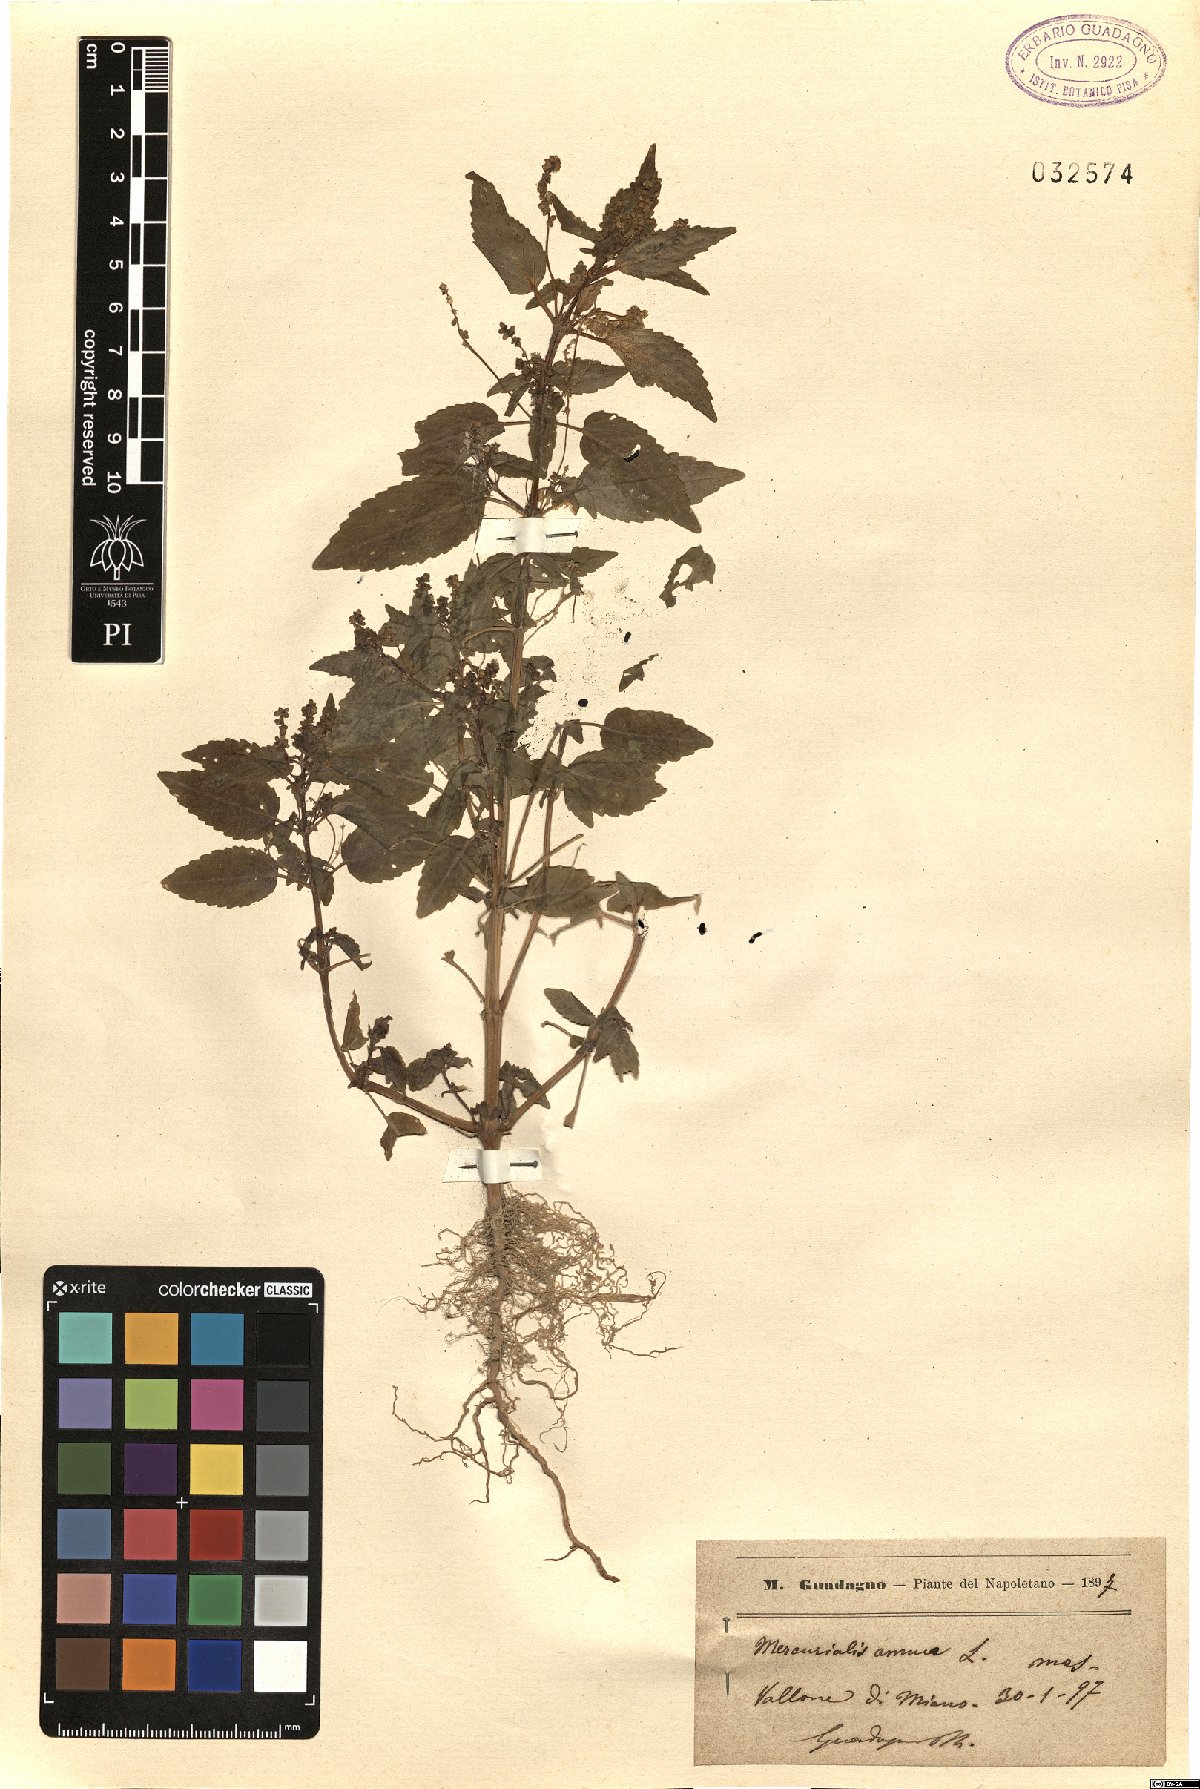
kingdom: Plantae
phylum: Tracheophyta
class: Magnoliopsida
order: Malpighiales
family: Euphorbiaceae
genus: Mercurialis
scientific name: Mercurialis annua
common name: Annual mercury
